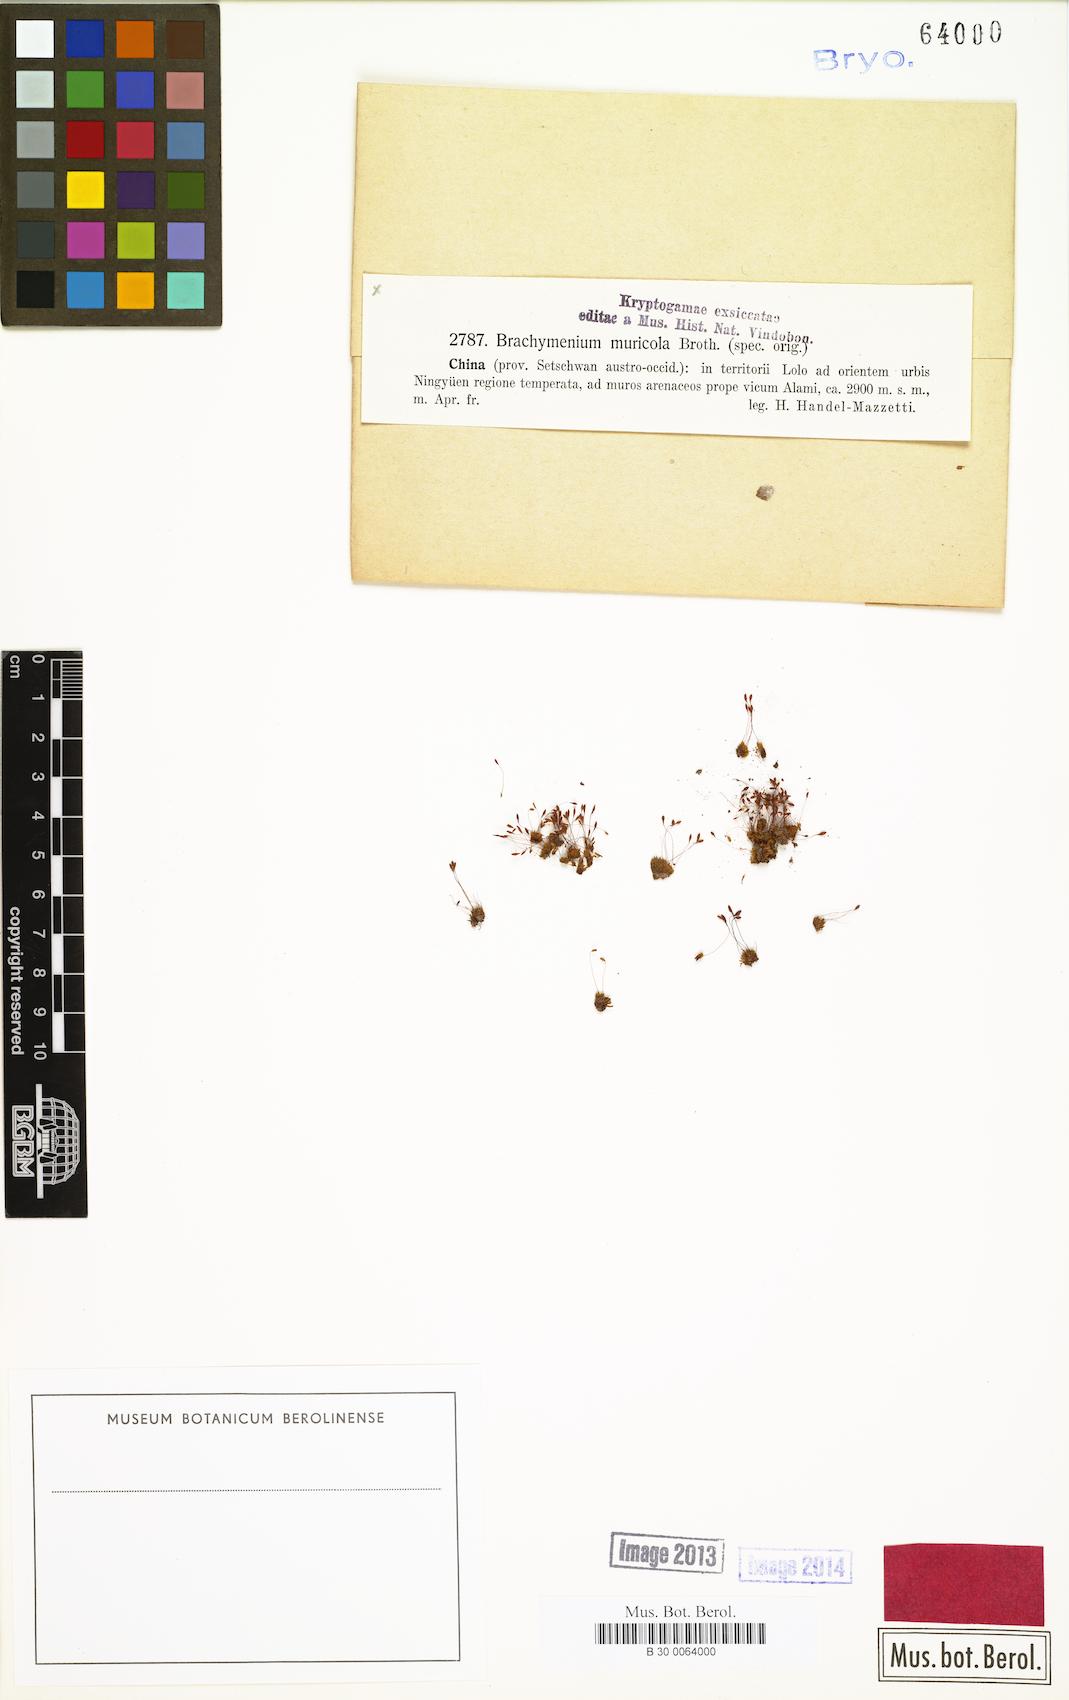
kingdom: Plantae
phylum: Bryophyta
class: Bryopsida
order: Bryales
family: Bryaceae
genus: Brachymenium
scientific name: Brachymenium muricola
